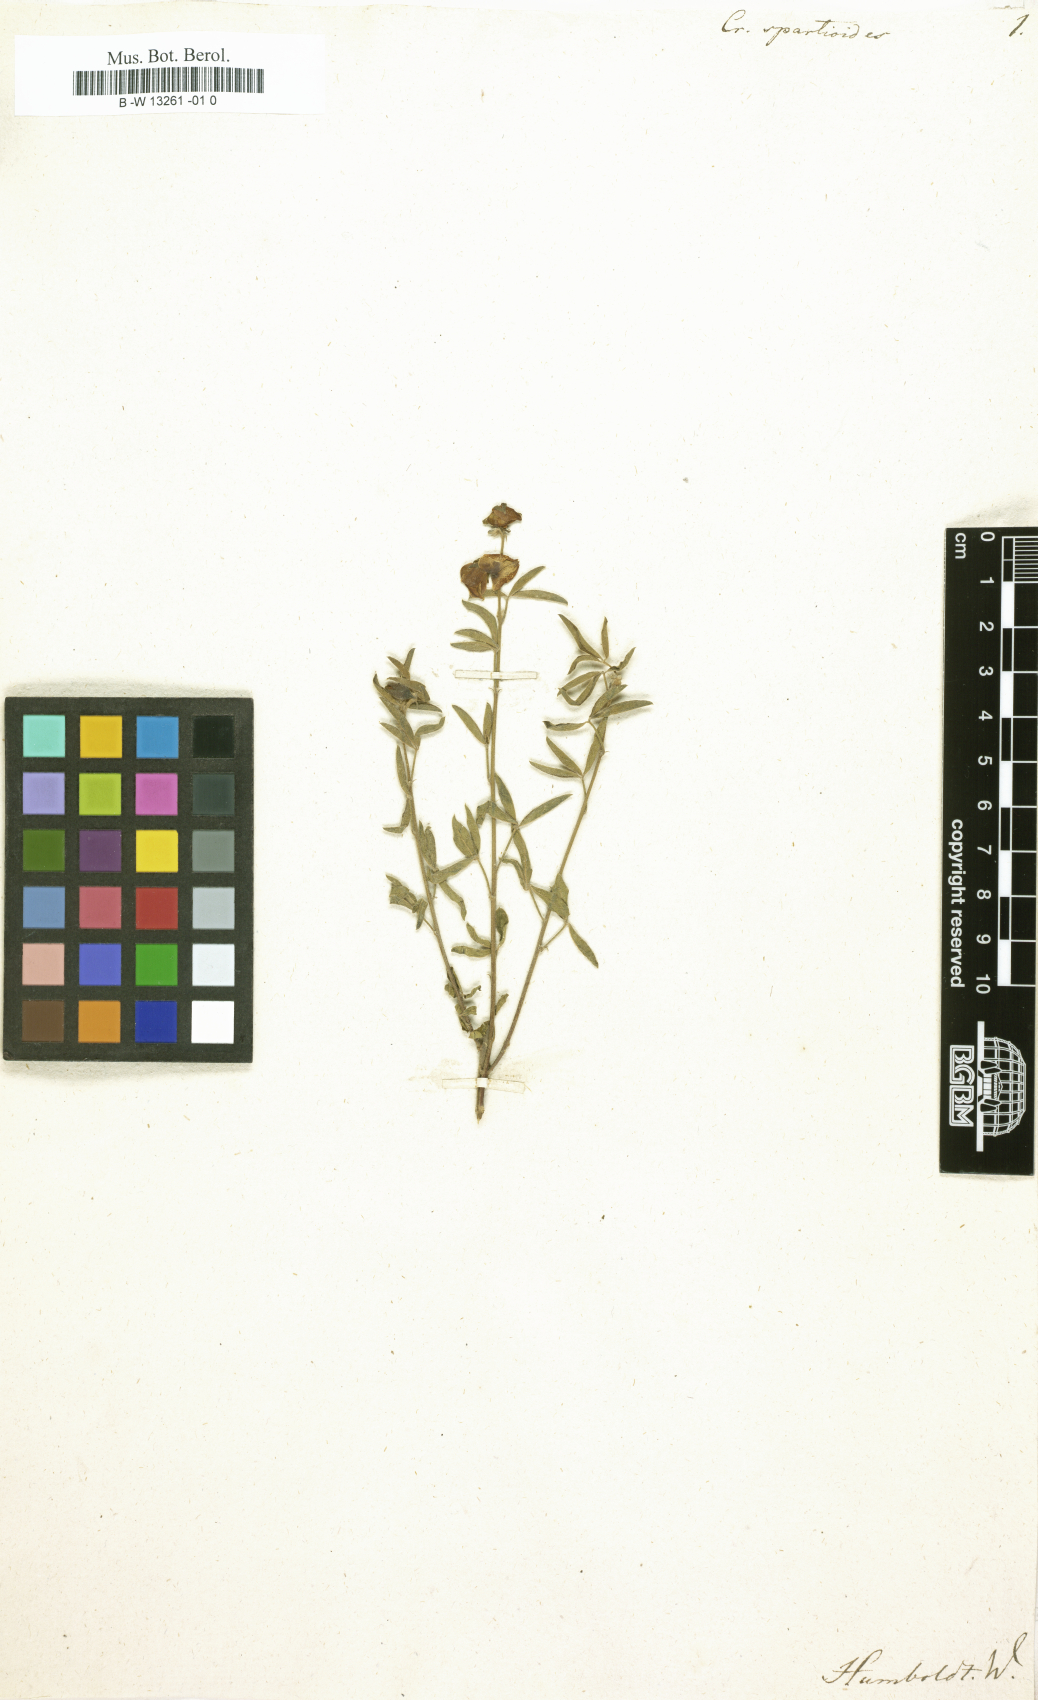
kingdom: Plantae
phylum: Tracheophyta
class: Magnoliopsida
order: Fabales
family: Fabaceae
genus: Crotalaria
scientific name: Crotalaria spartioides
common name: Dunebush
